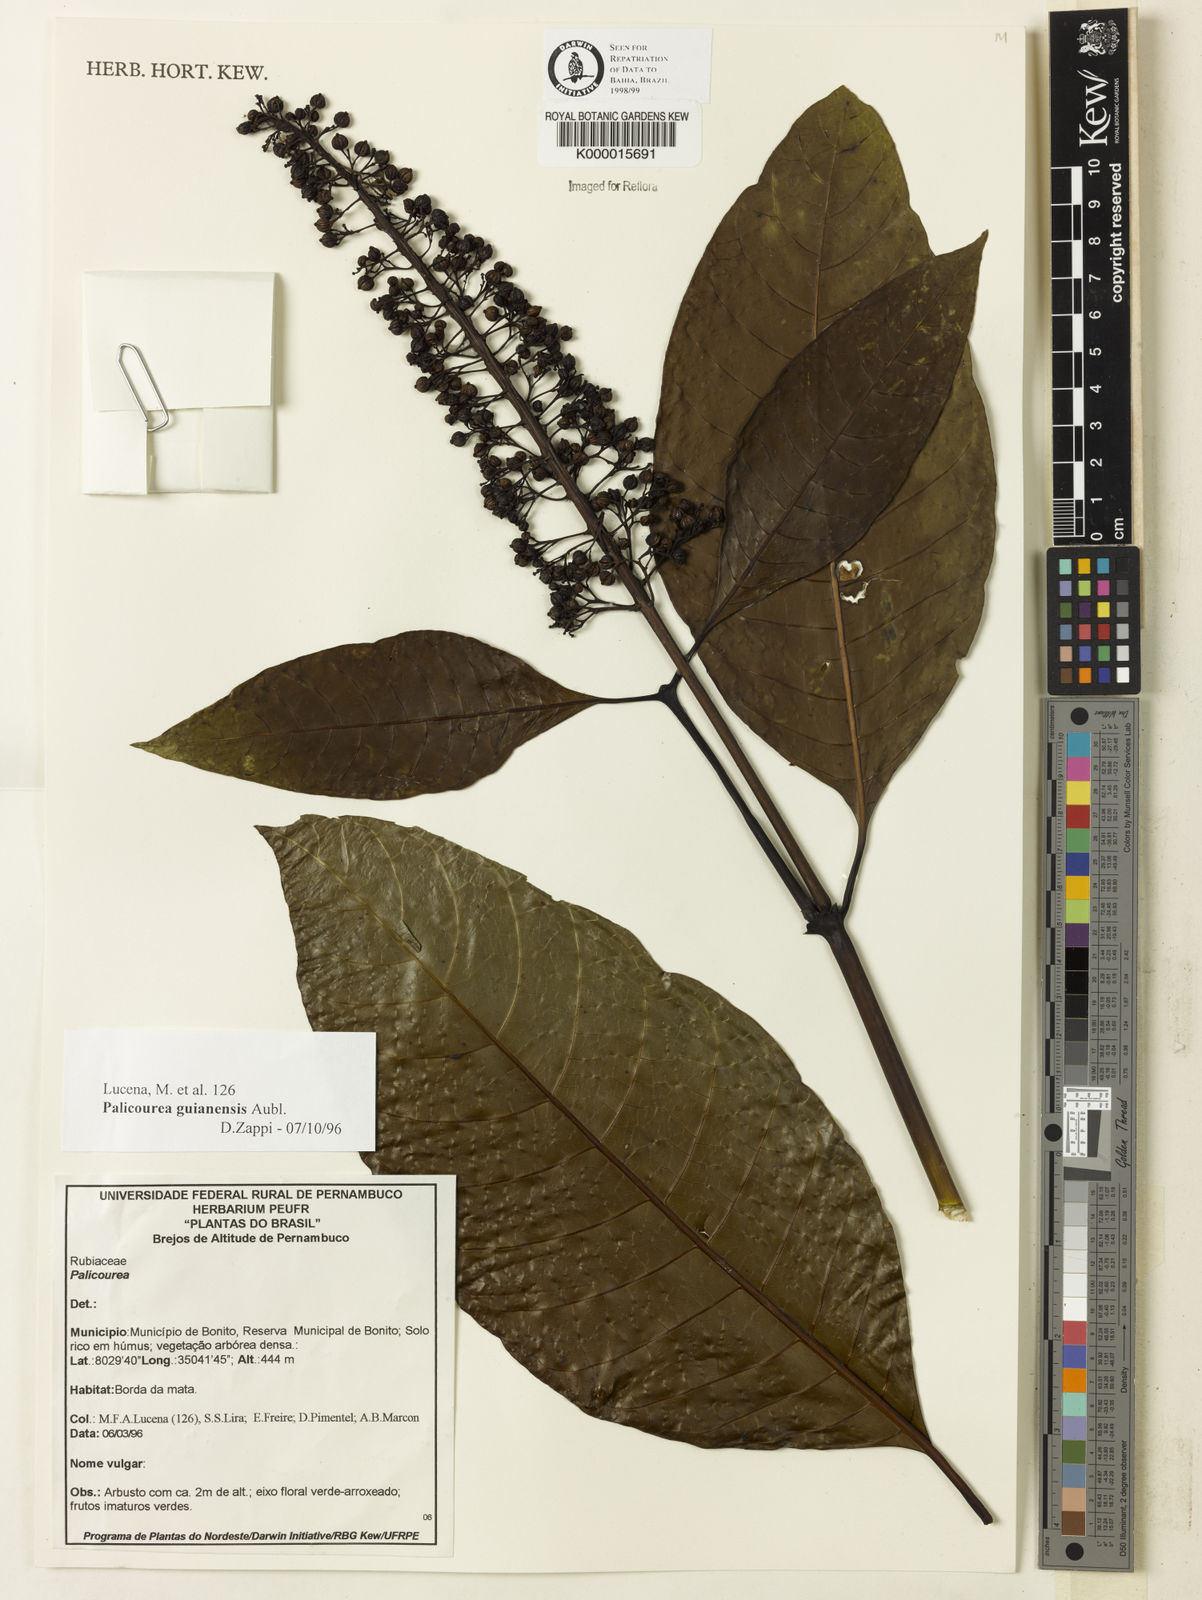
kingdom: Plantae
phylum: Tracheophyta
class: Magnoliopsida
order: Gentianales
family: Rubiaceae
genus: Palicourea
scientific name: Palicourea guianensis
